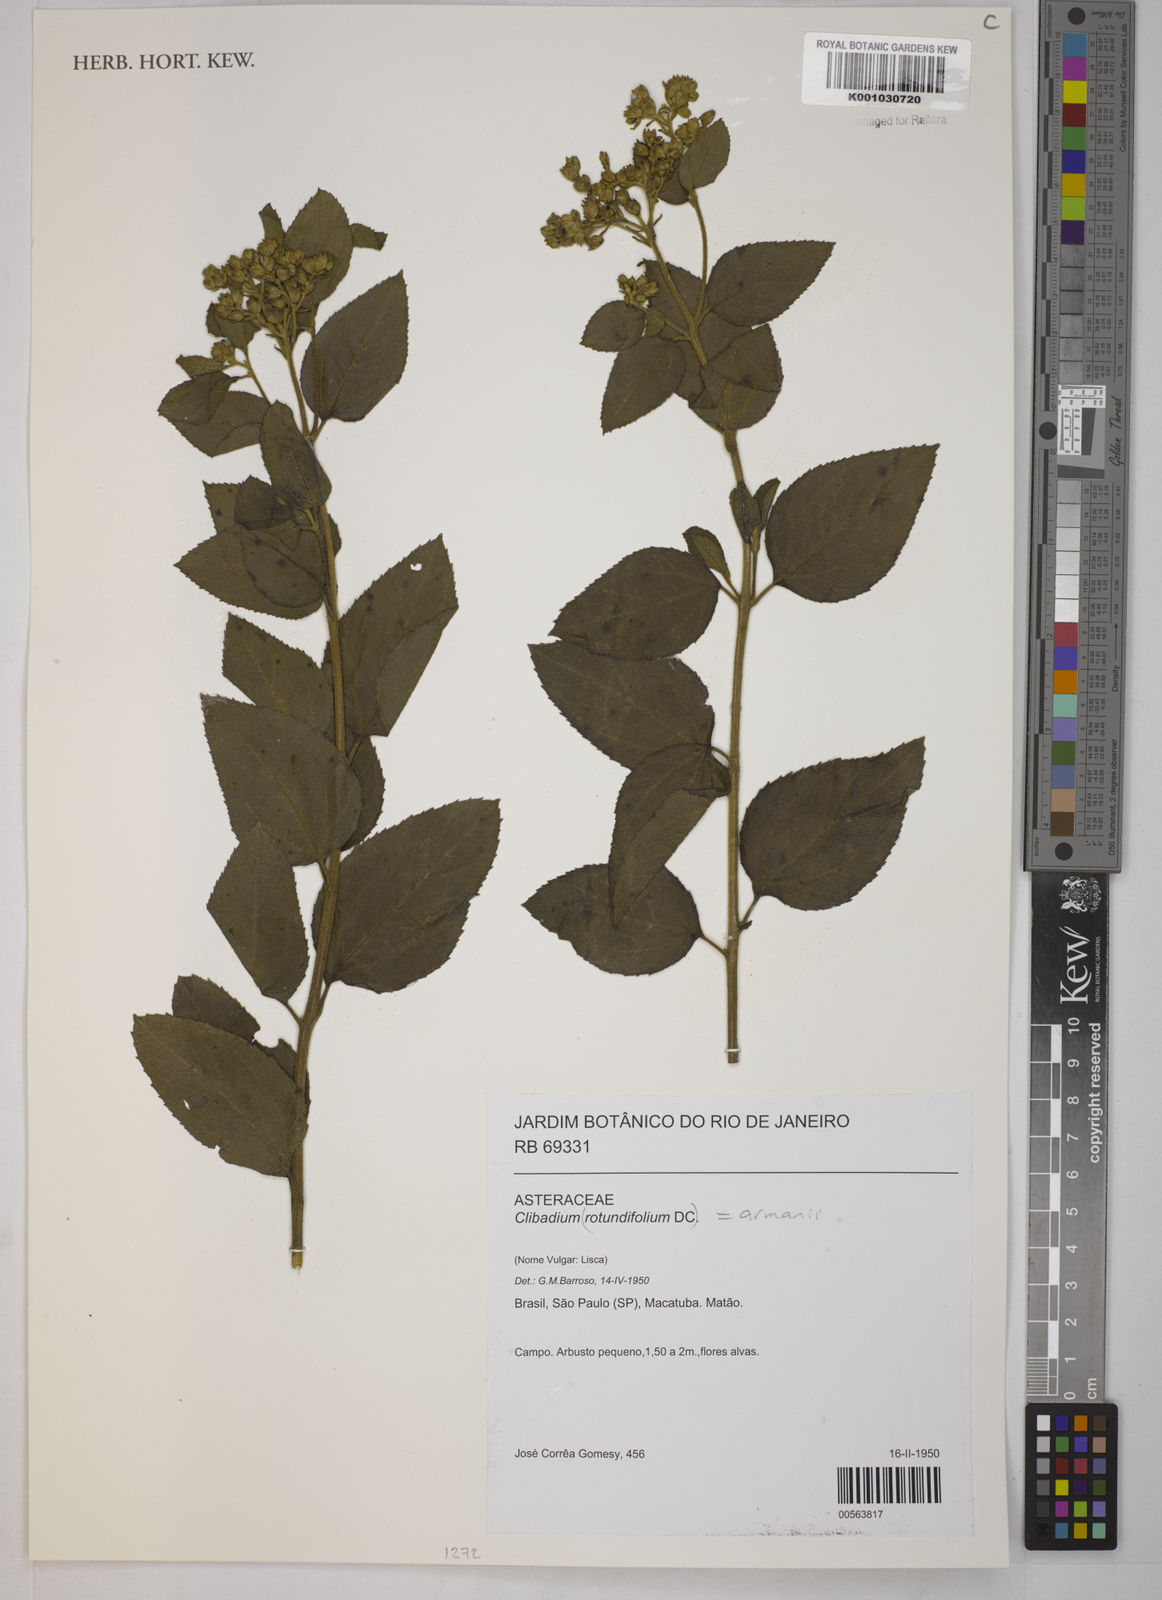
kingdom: Plantae
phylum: Tracheophyta
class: Magnoliopsida
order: Asterales
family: Asteraceae
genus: Clibadium
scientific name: Clibadium armanii
